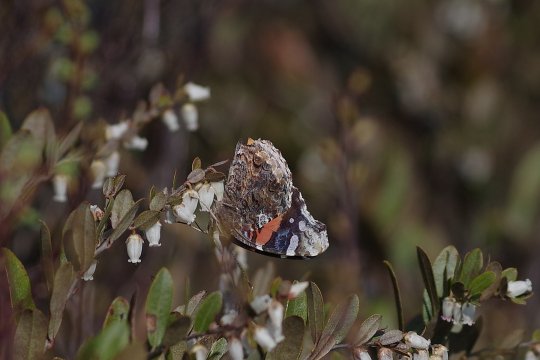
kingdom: Animalia
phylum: Arthropoda
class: Insecta
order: Lepidoptera
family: Nymphalidae
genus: Vanessa
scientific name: Vanessa atalanta
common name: Red Admiral
